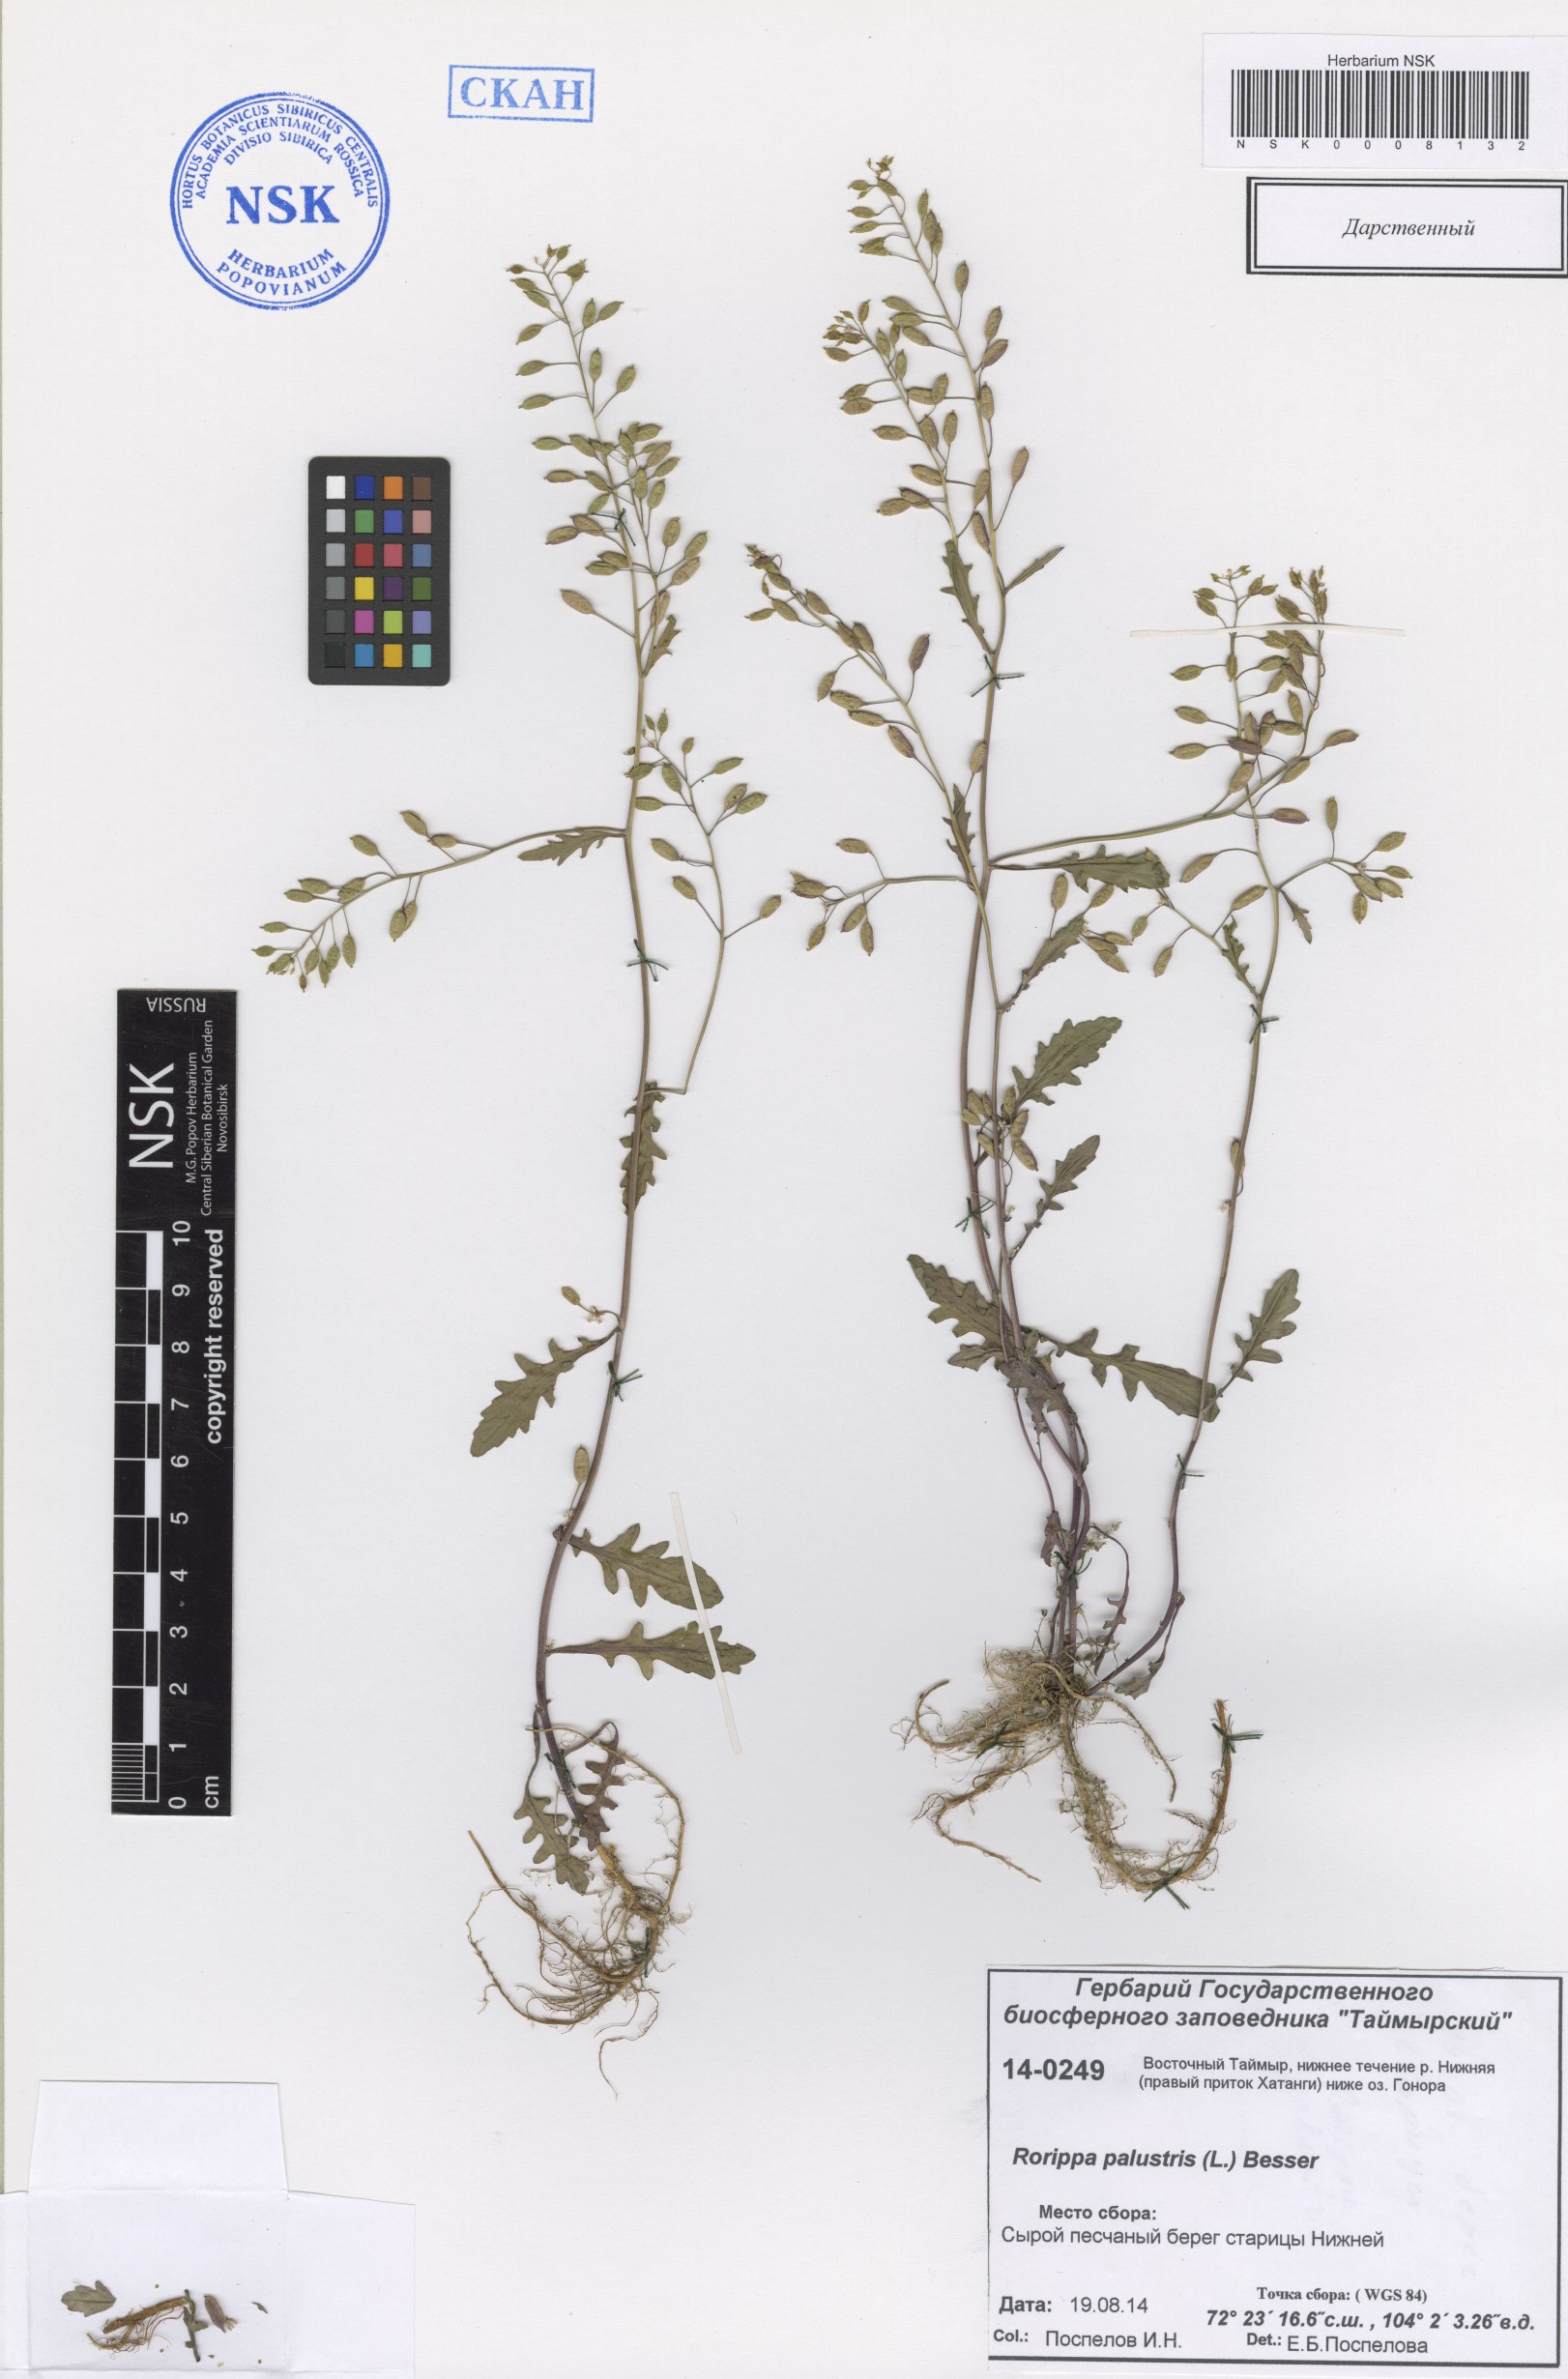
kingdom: Plantae
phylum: Tracheophyta
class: Magnoliopsida
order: Brassicales
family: Brassicaceae
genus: Rorippa
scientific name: Rorippa palustris
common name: Marsh yellow-cress
